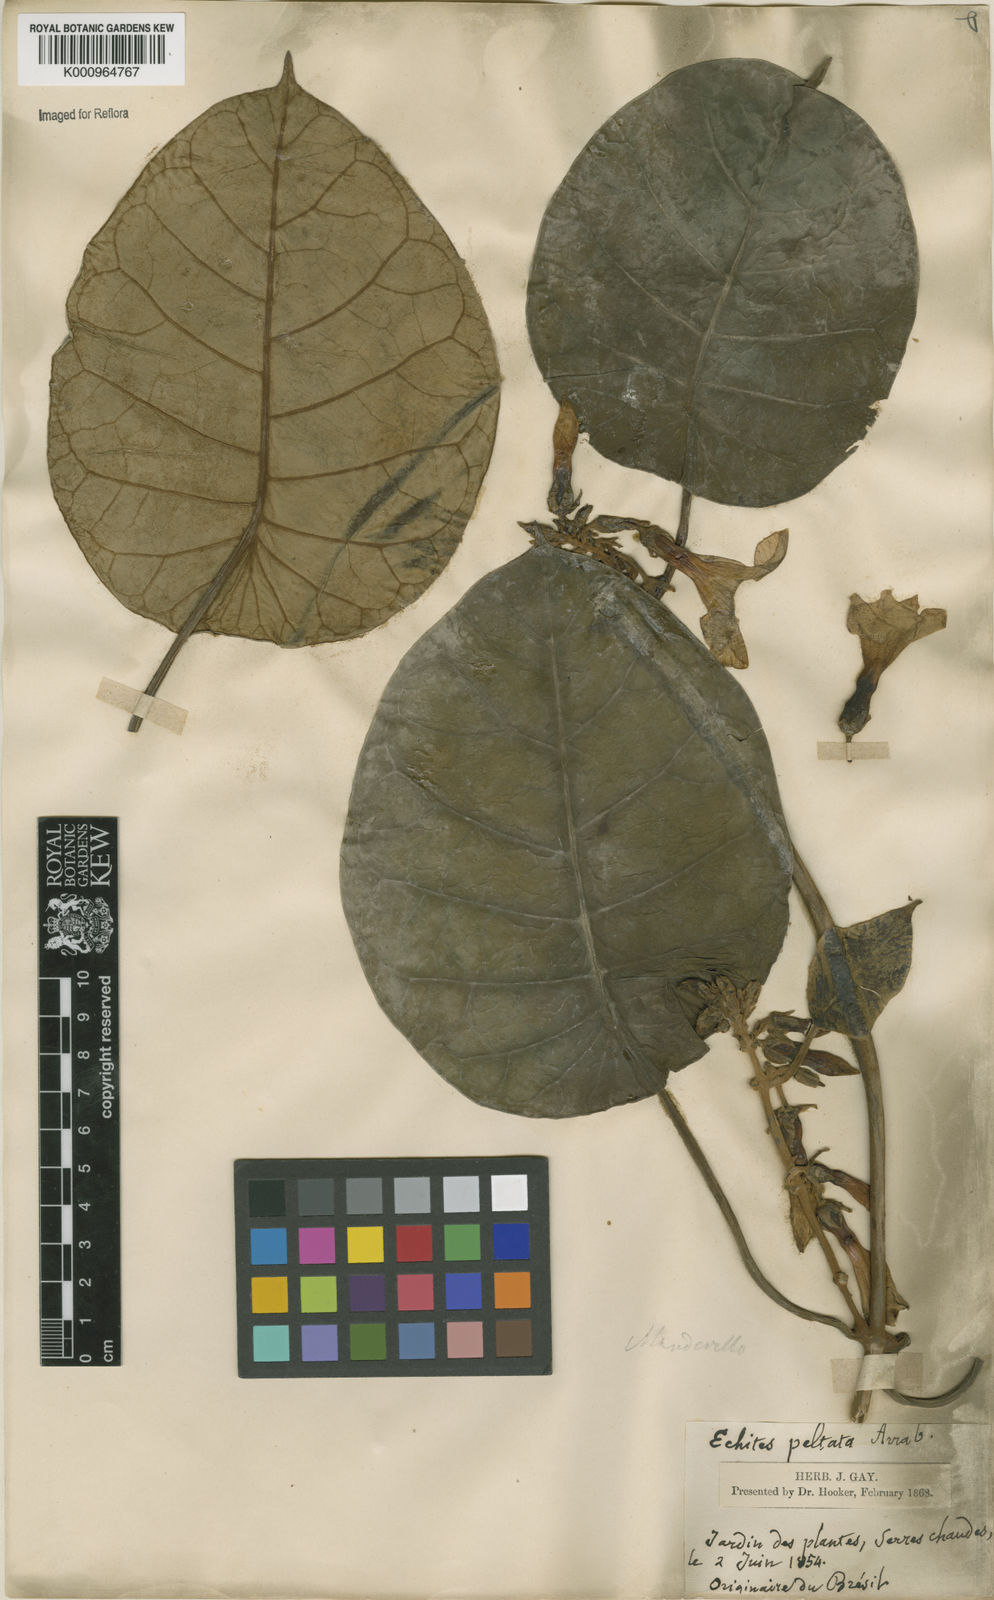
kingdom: Plantae
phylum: Tracheophyta
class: Magnoliopsida
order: Gentianales
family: Apocynaceae
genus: Macropharynx
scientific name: Macropharynx peltata
